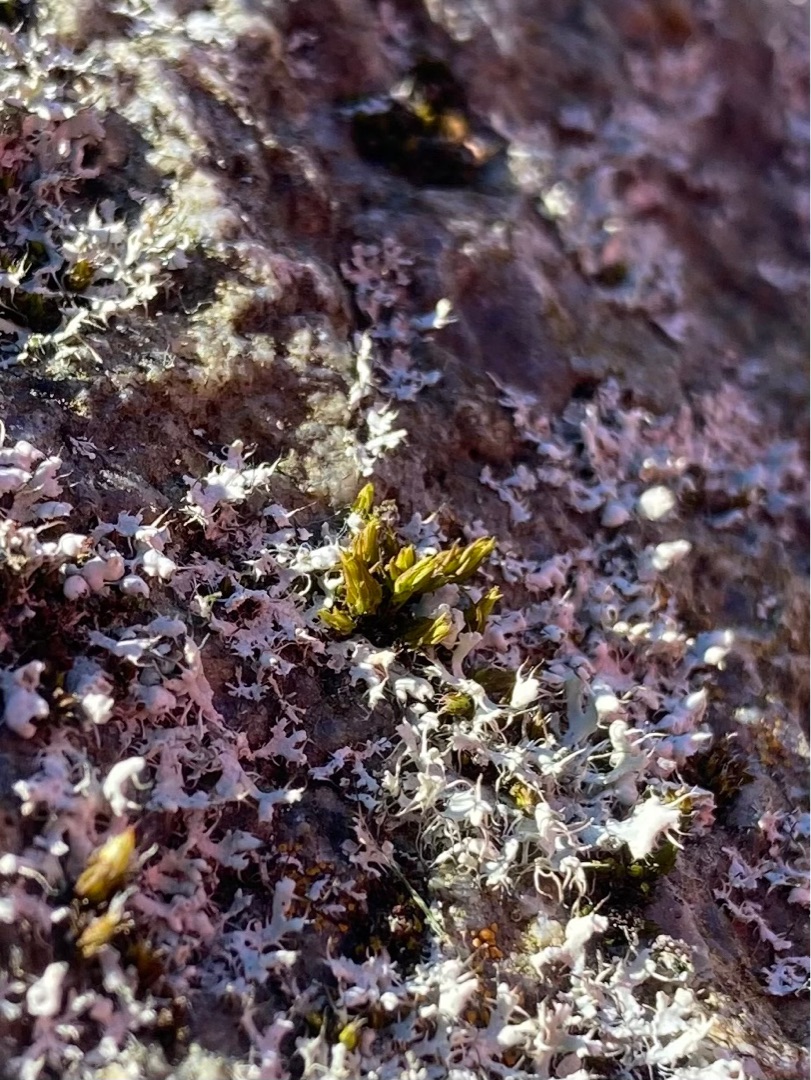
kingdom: Fungi
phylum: Ascomycota
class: Lecanoromycetes
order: Caliciales
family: Physciaceae
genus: Physcia
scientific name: Physcia adscendens
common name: Hætte-rosetlav
